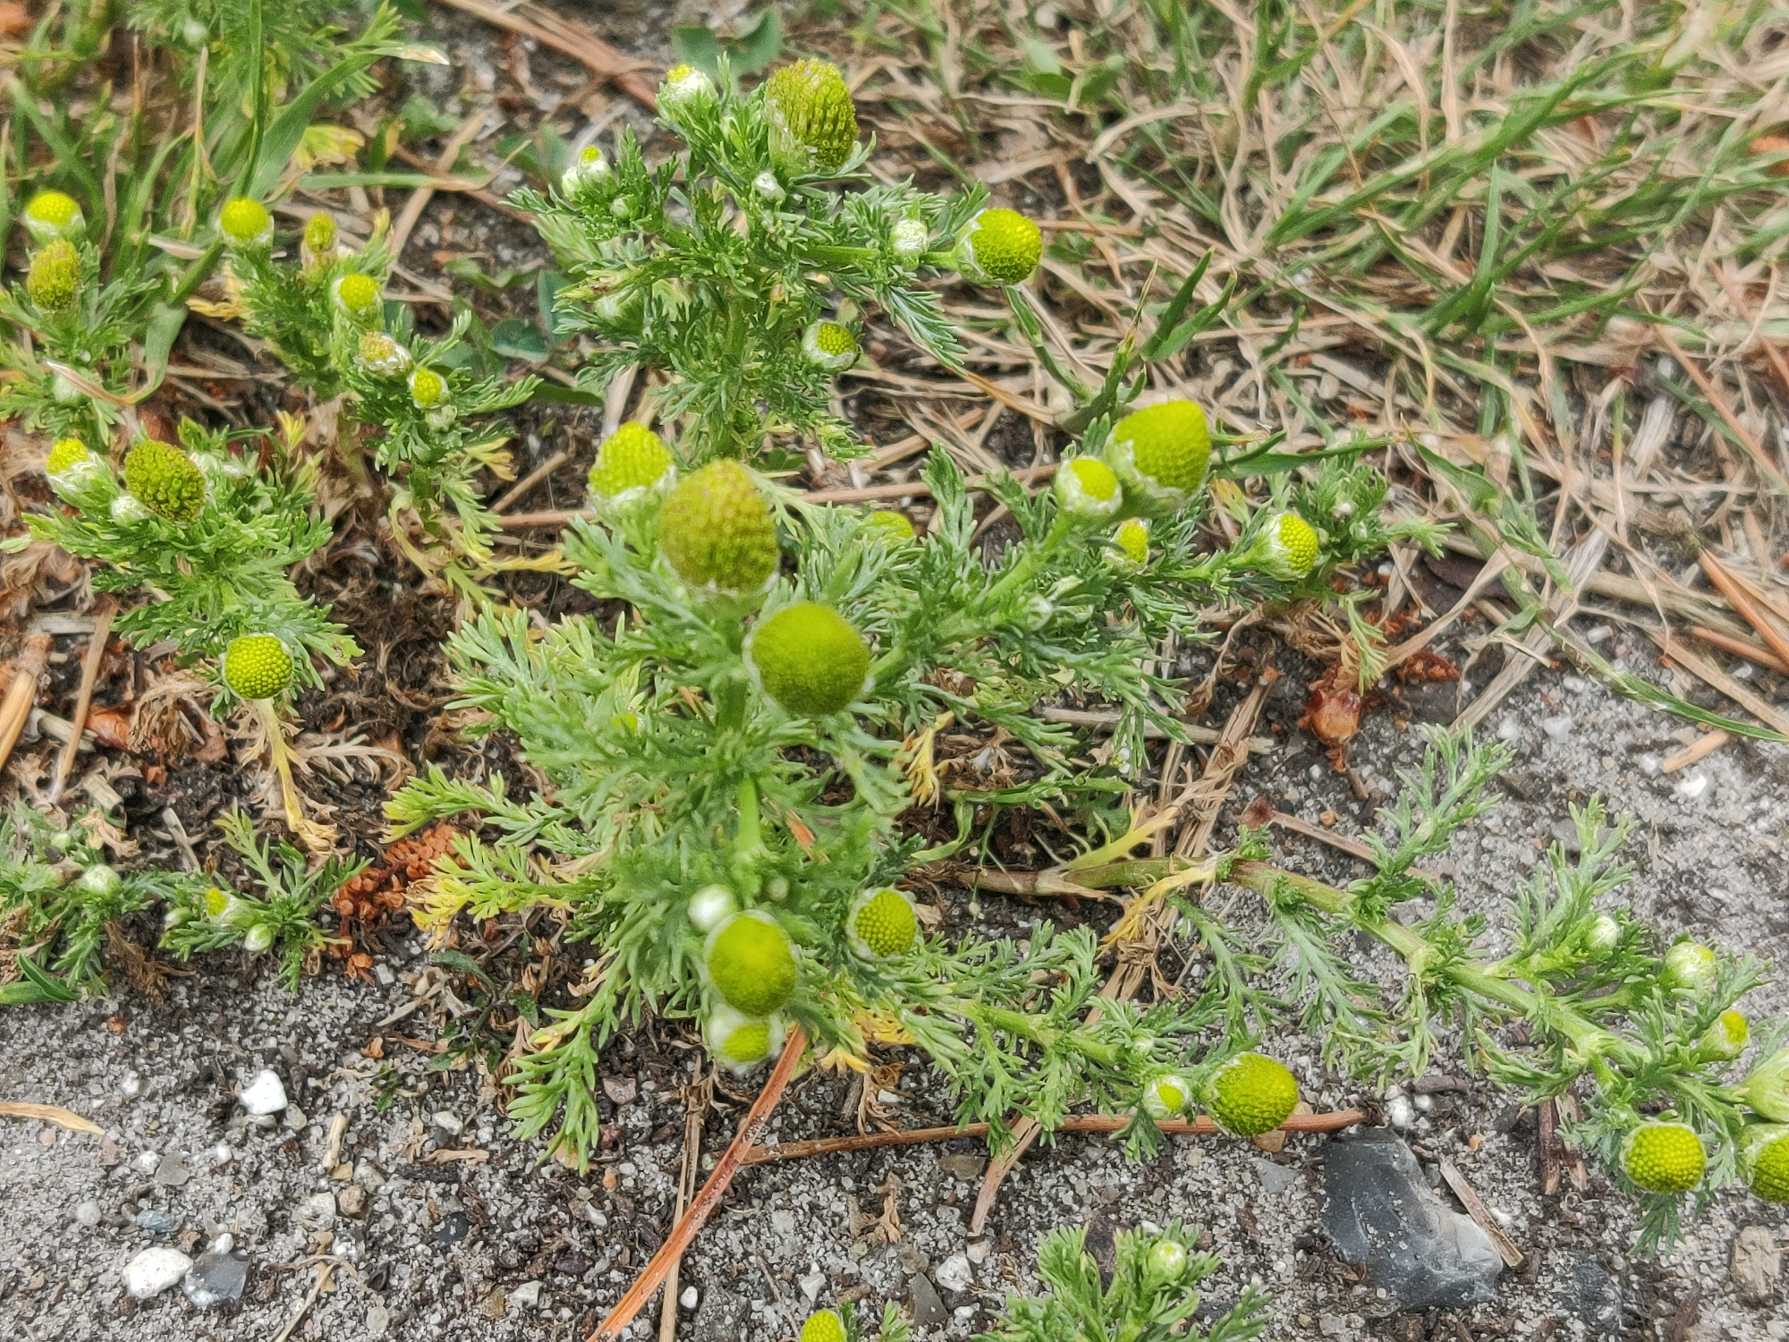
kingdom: Plantae
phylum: Tracheophyta
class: Magnoliopsida
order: Asterales
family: Asteraceae
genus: Matricaria
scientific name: Matricaria discoidea
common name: Skive-kamille
